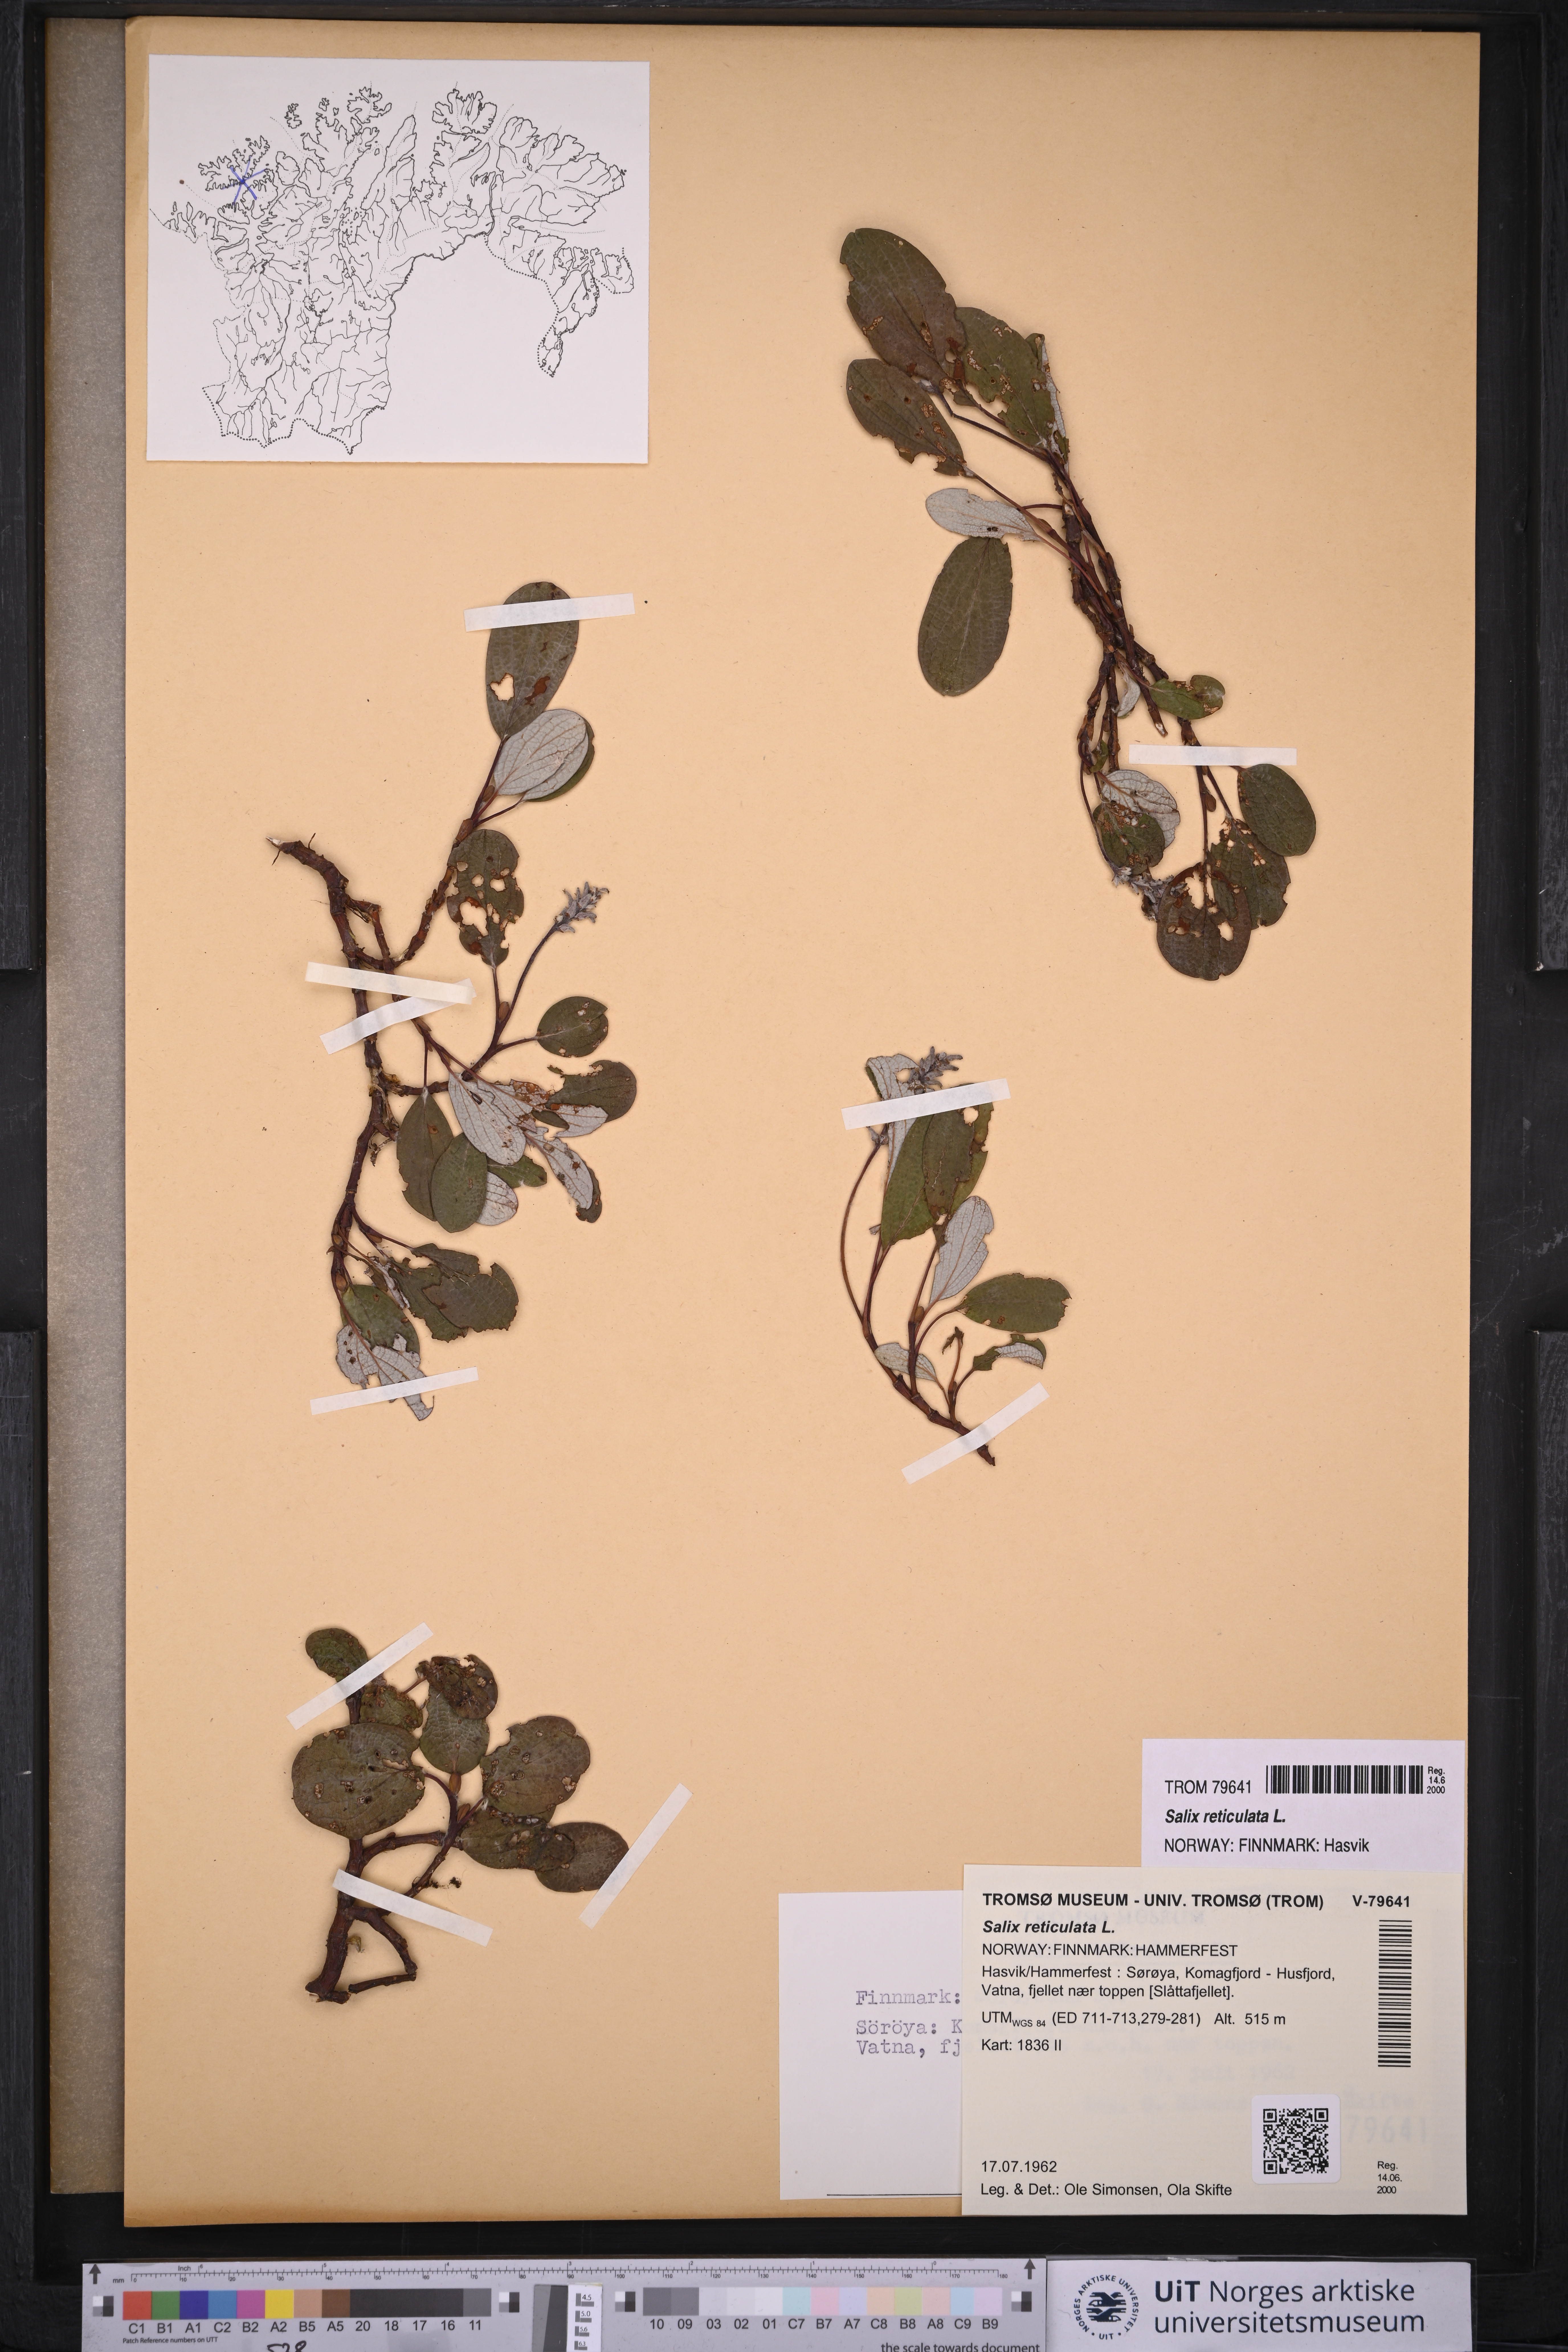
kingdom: Plantae
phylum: Tracheophyta
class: Magnoliopsida
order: Malpighiales
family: Salicaceae
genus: Salix
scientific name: Salix reticulata
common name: Net-leaved willow
